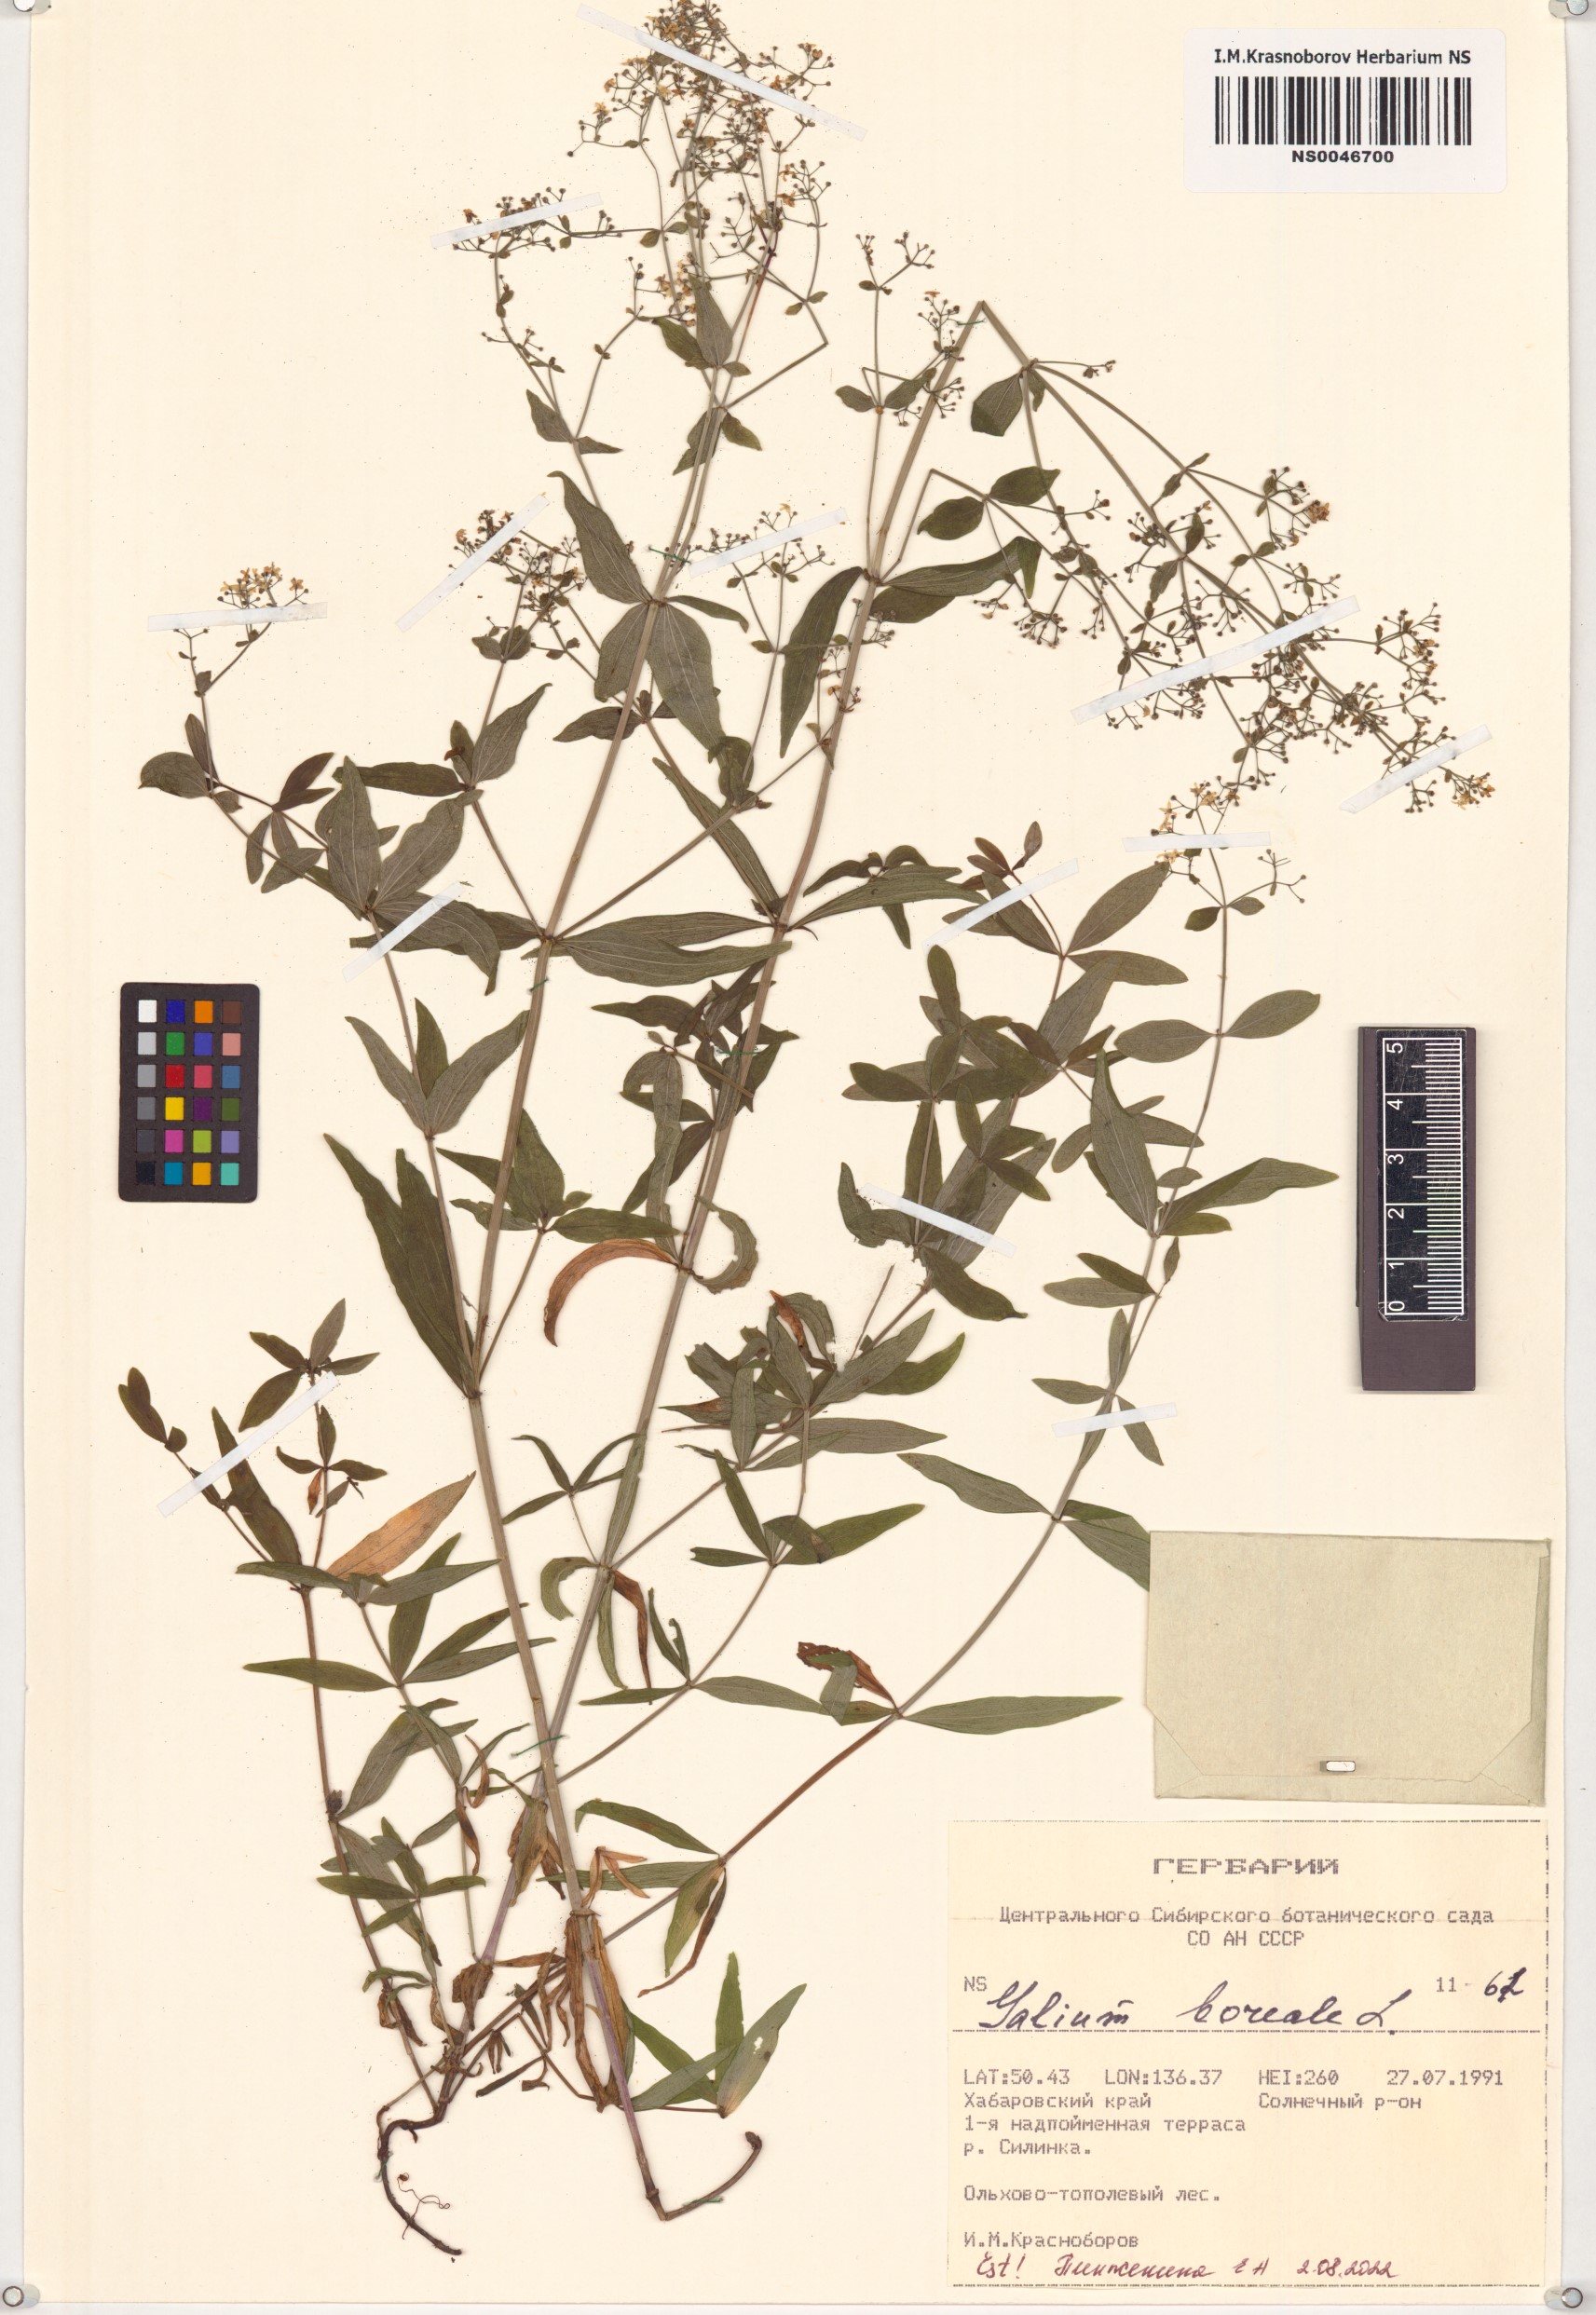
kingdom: Plantae
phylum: Tracheophyta
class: Magnoliopsida
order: Gentianales
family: Rubiaceae
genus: Galium
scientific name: Galium boreale
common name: Northern bedstraw
